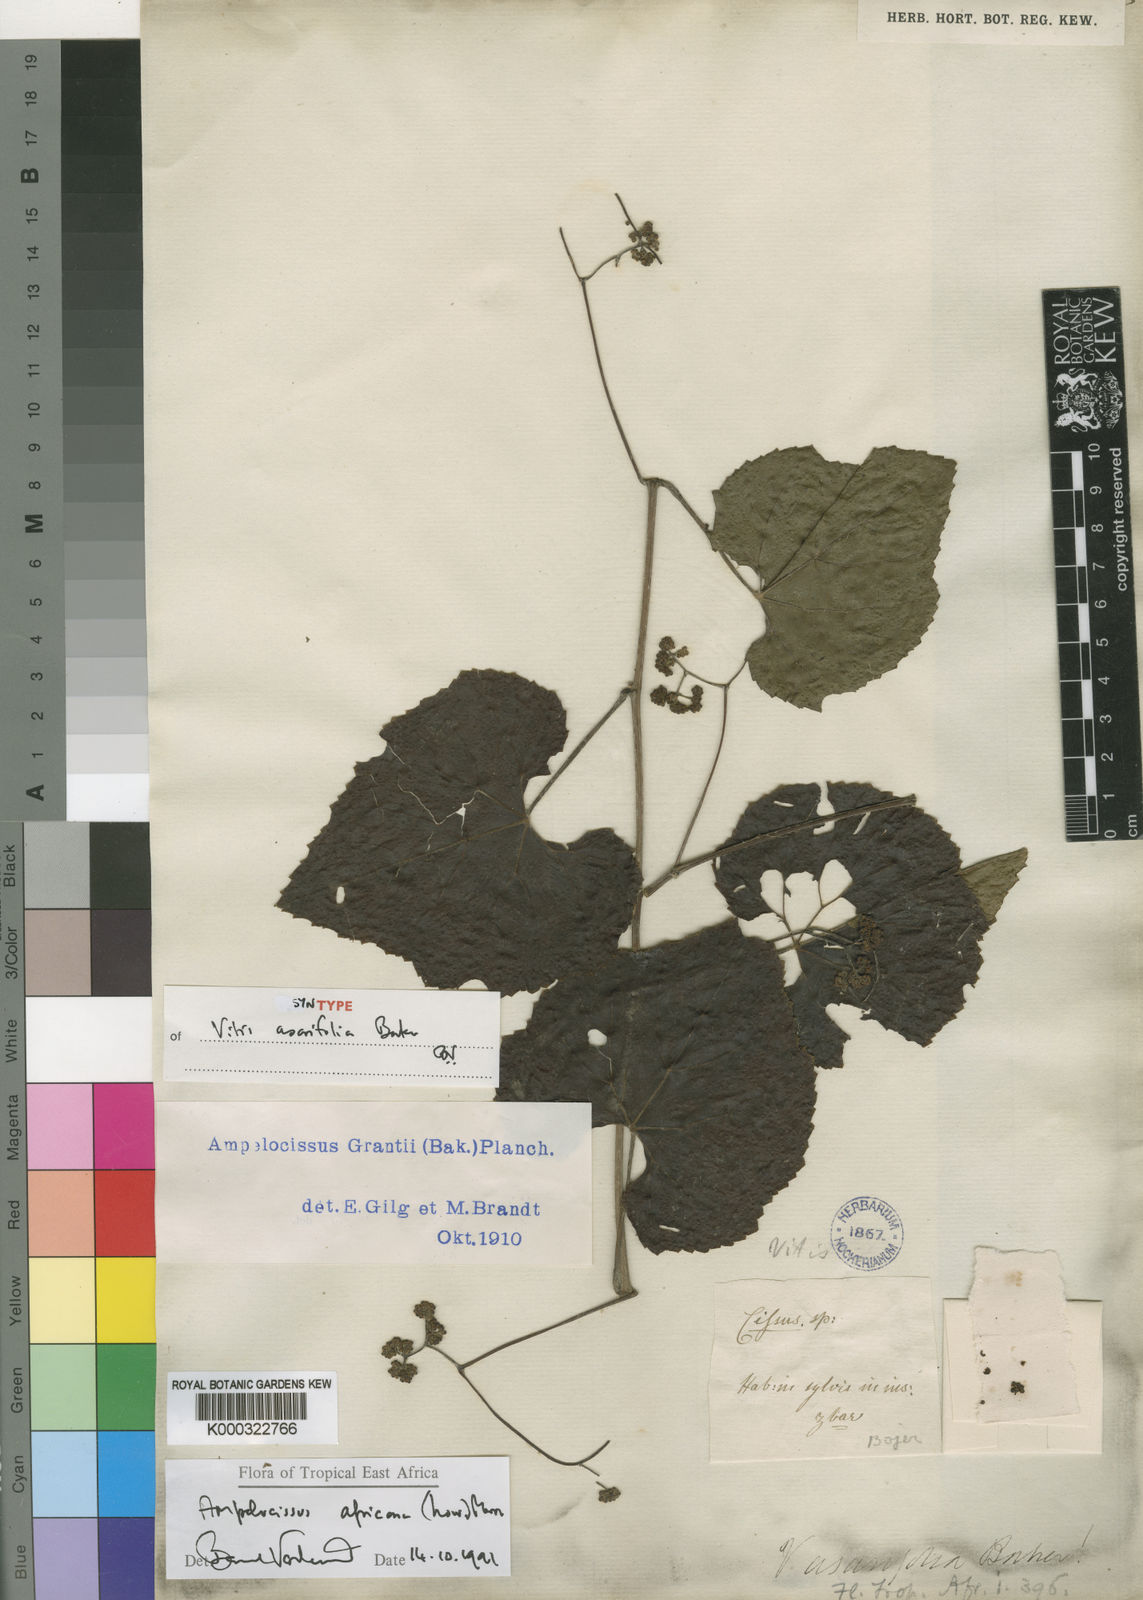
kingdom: Plantae
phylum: Tracheophyta
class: Magnoliopsida
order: Vitales
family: Vitaceae
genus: Ampelocissus
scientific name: Ampelocissus africana
